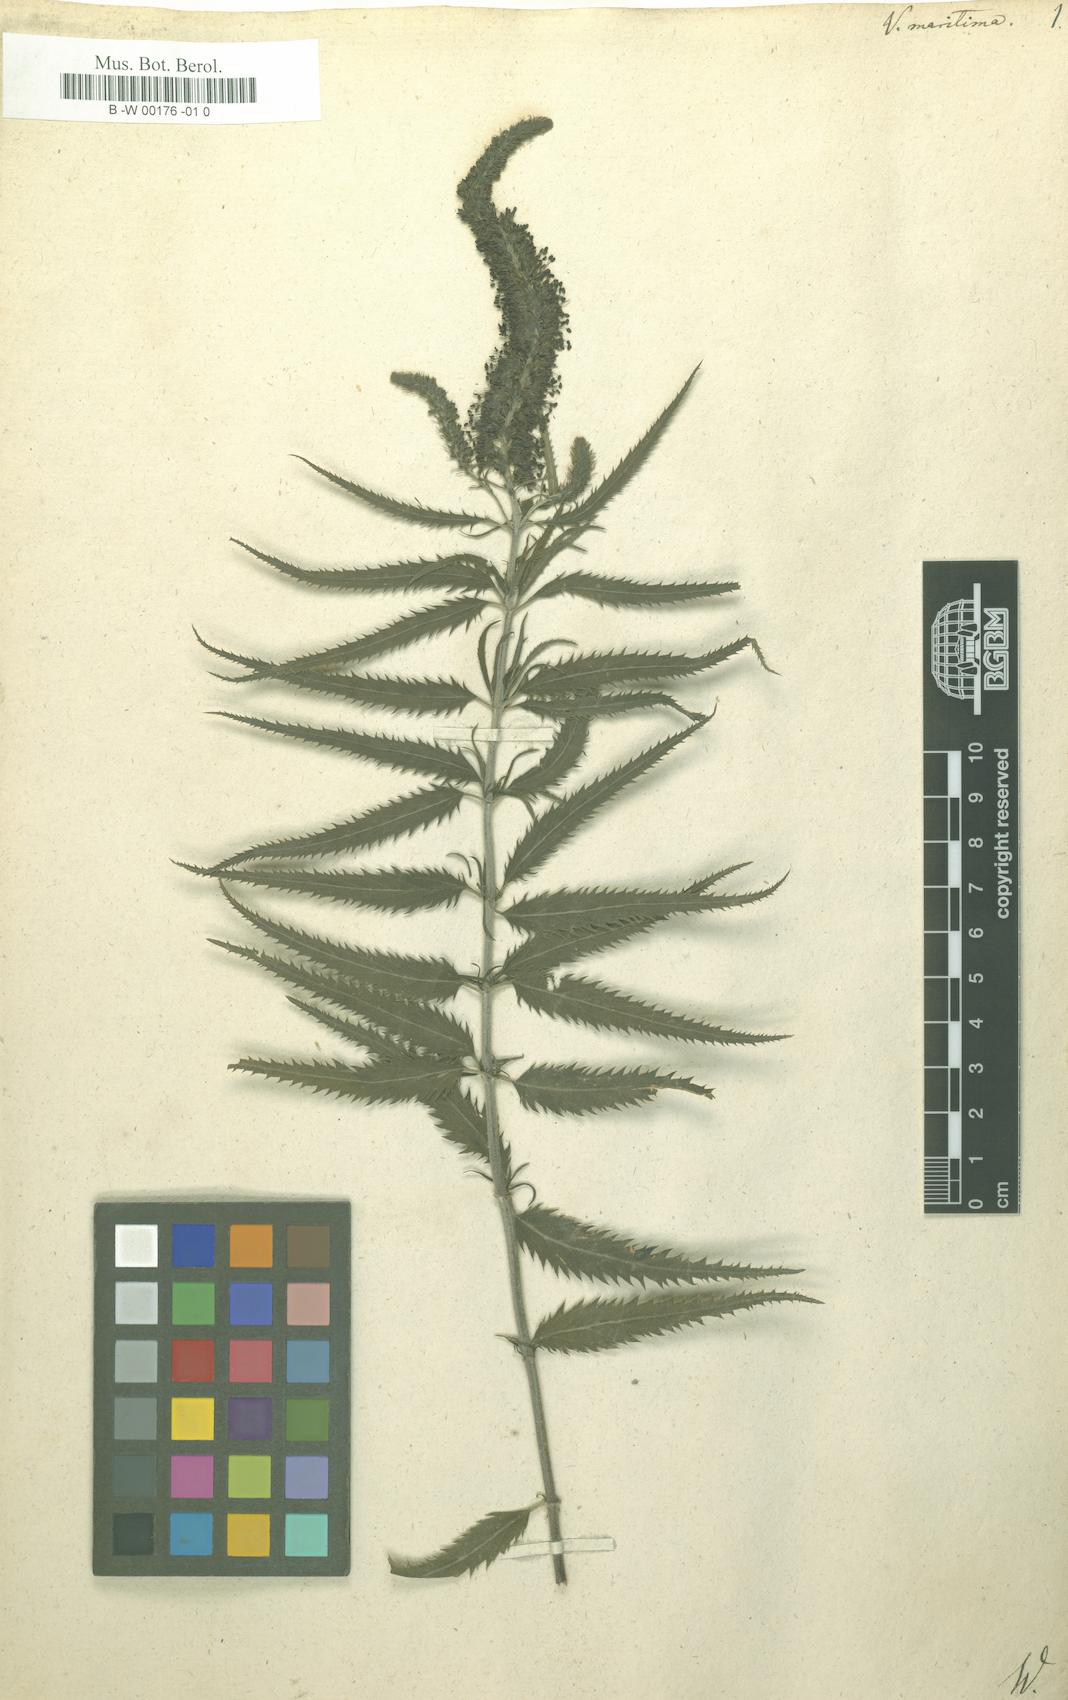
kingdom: Plantae
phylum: Tracheophyta
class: Magnoliopsida
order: Lamiales
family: Plantaginaceae
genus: Veronica
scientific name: Veronica maritima
